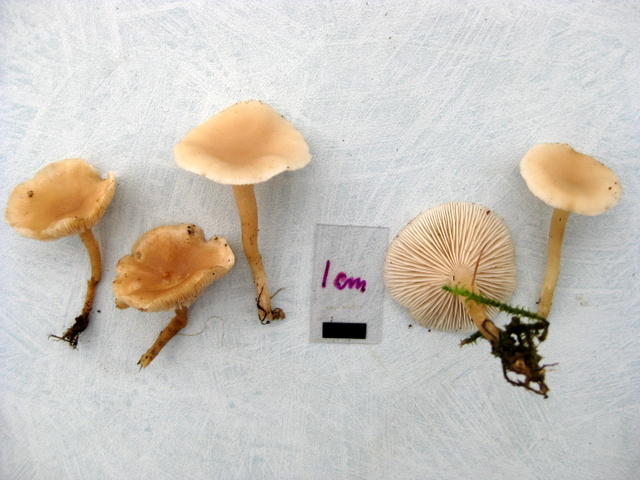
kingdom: Fungi
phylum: Basidiomycota
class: Agaricomycetes
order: Agaricales
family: Tricholomataceae
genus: Clitocybe
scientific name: Clitocybe fragrans
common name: vellugtende tragthat
